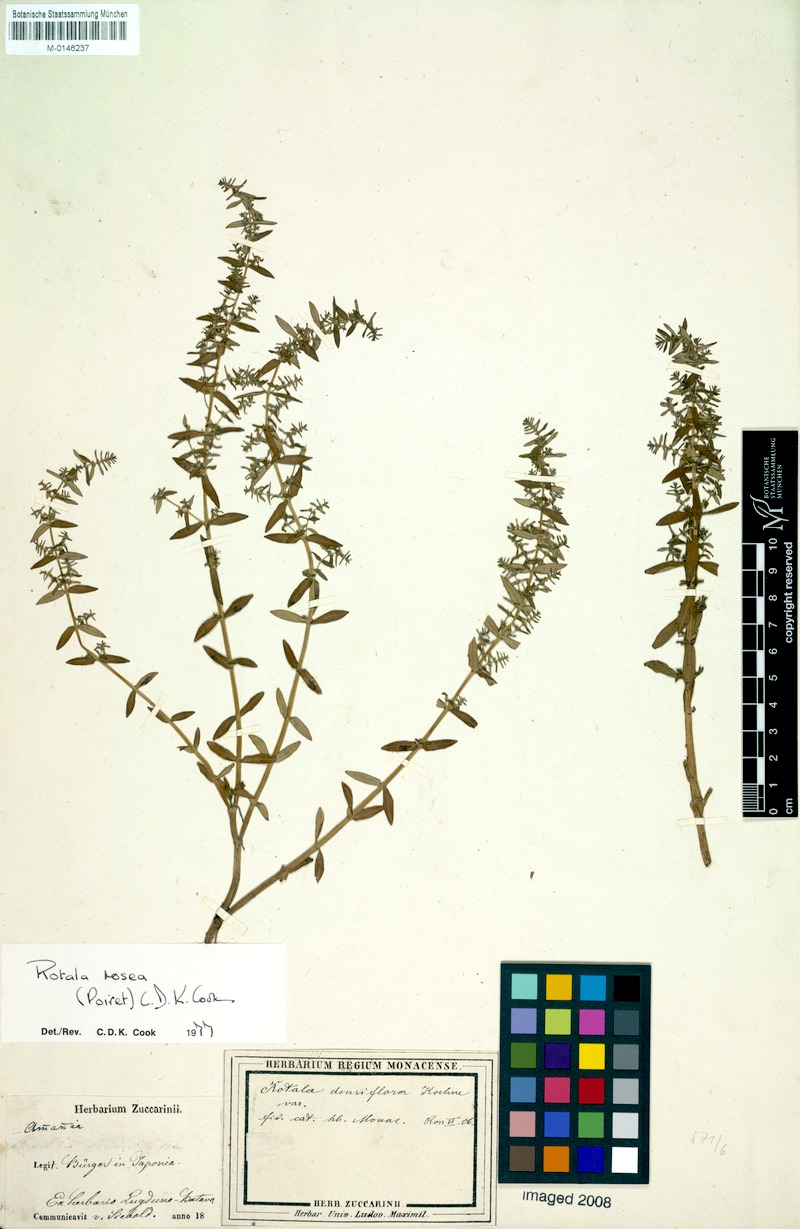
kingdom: Plantae
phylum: Tracheophyta
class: Magnoliopsida
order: Myrtales
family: Lythraceae
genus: Rotala
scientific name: Rotala rosea
